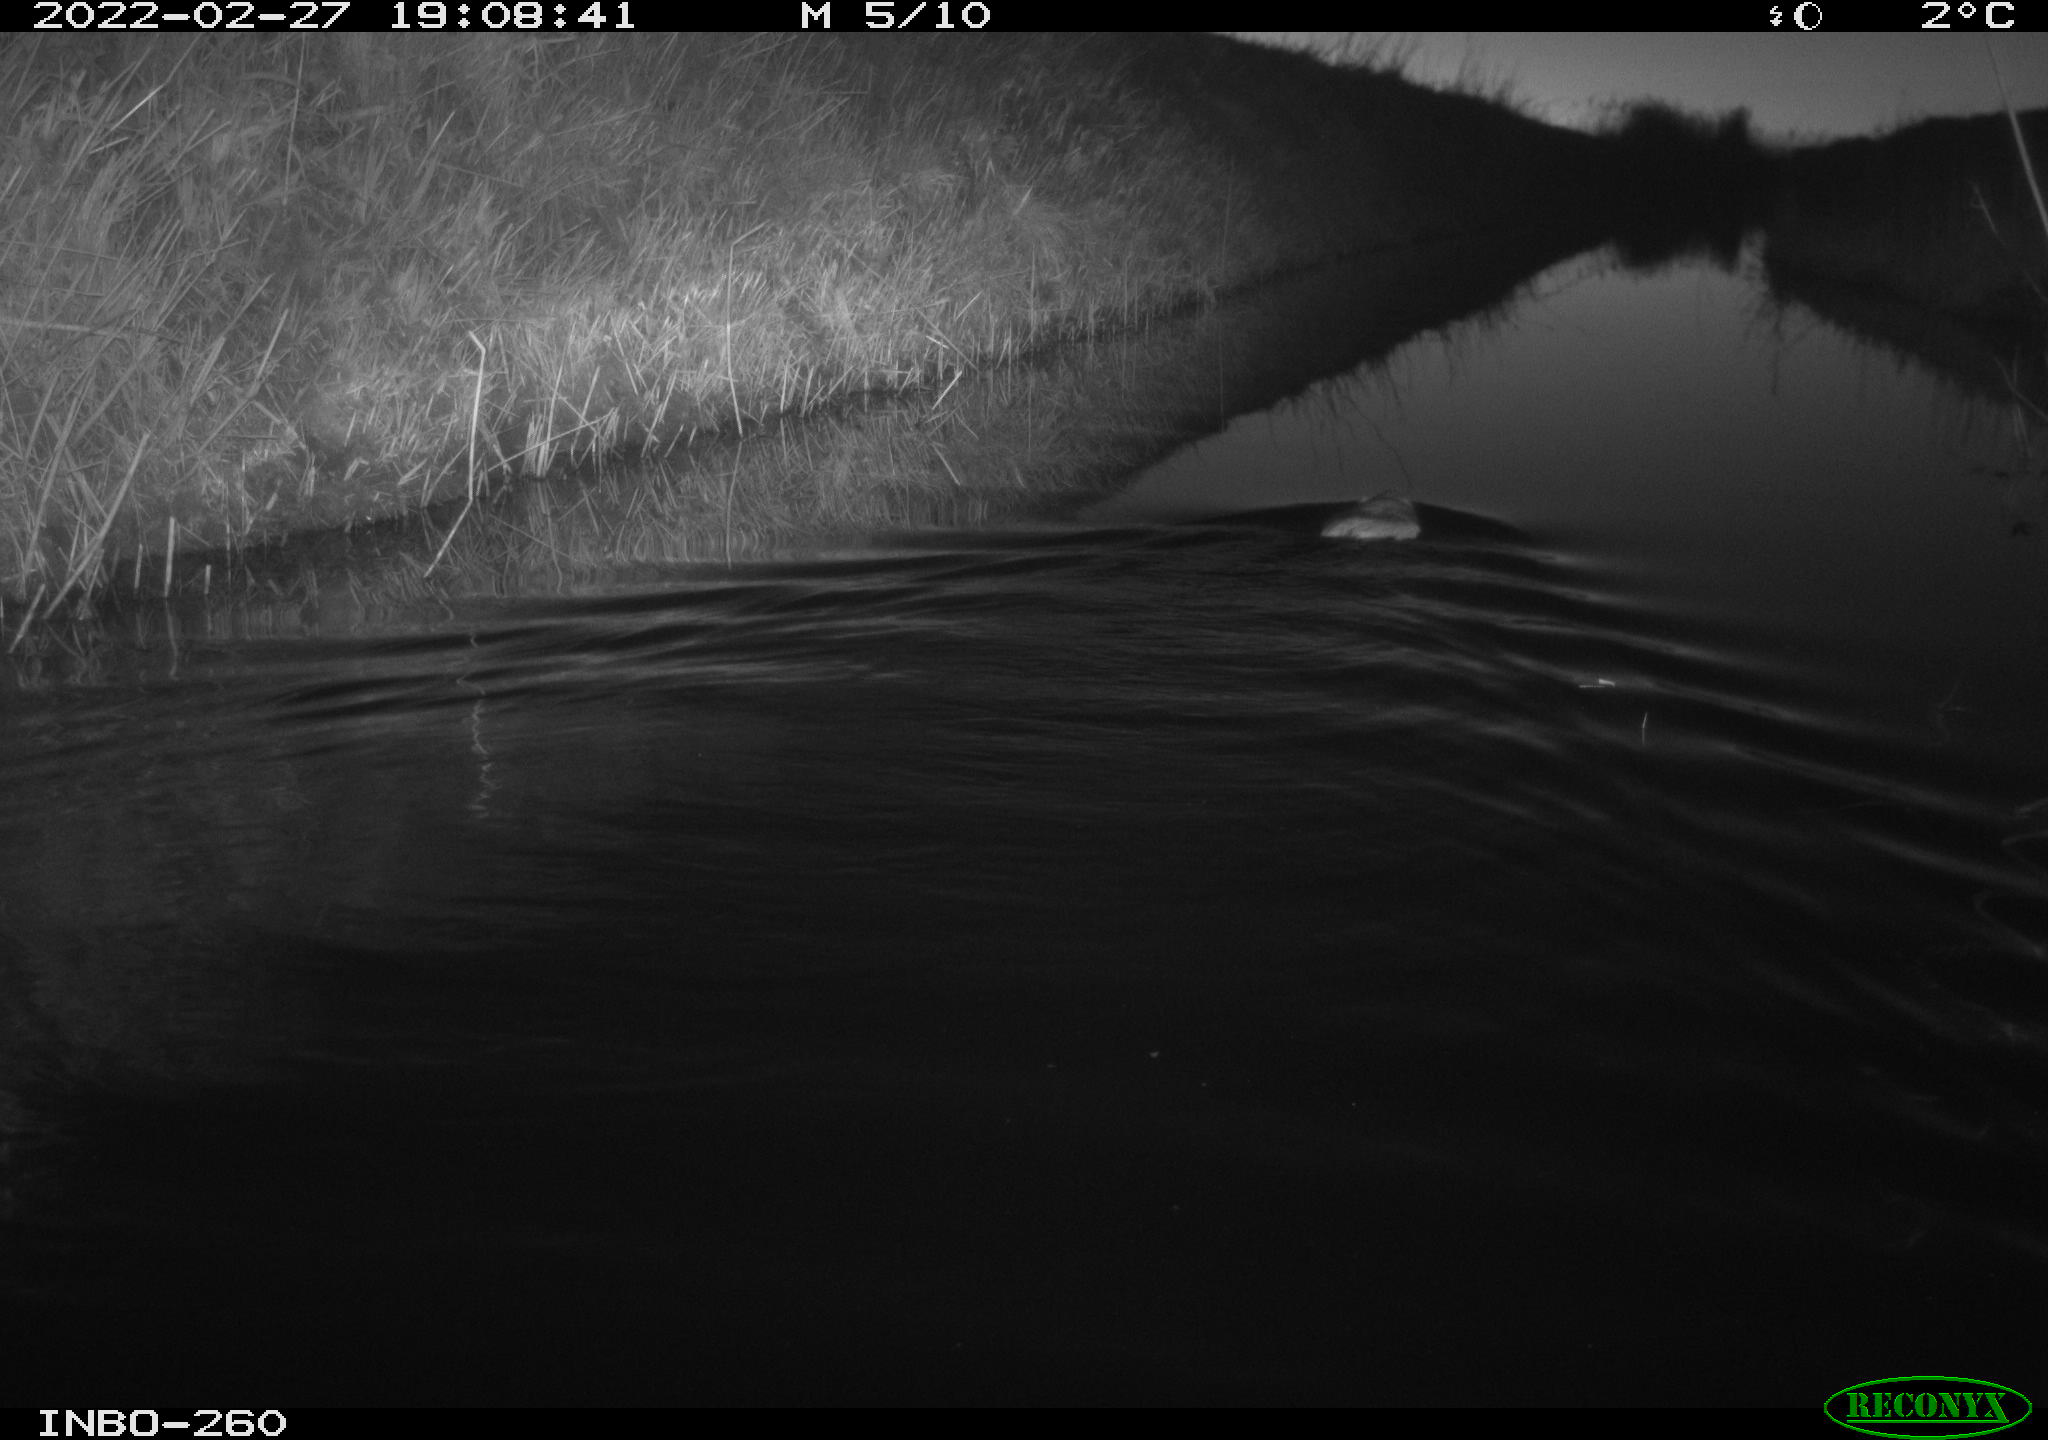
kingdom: Animalia
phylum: Chordata
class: Mammalia
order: Rodentia
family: Cricetidae
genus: Ondatra
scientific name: Ondatra zibethicus
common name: Muskrat
